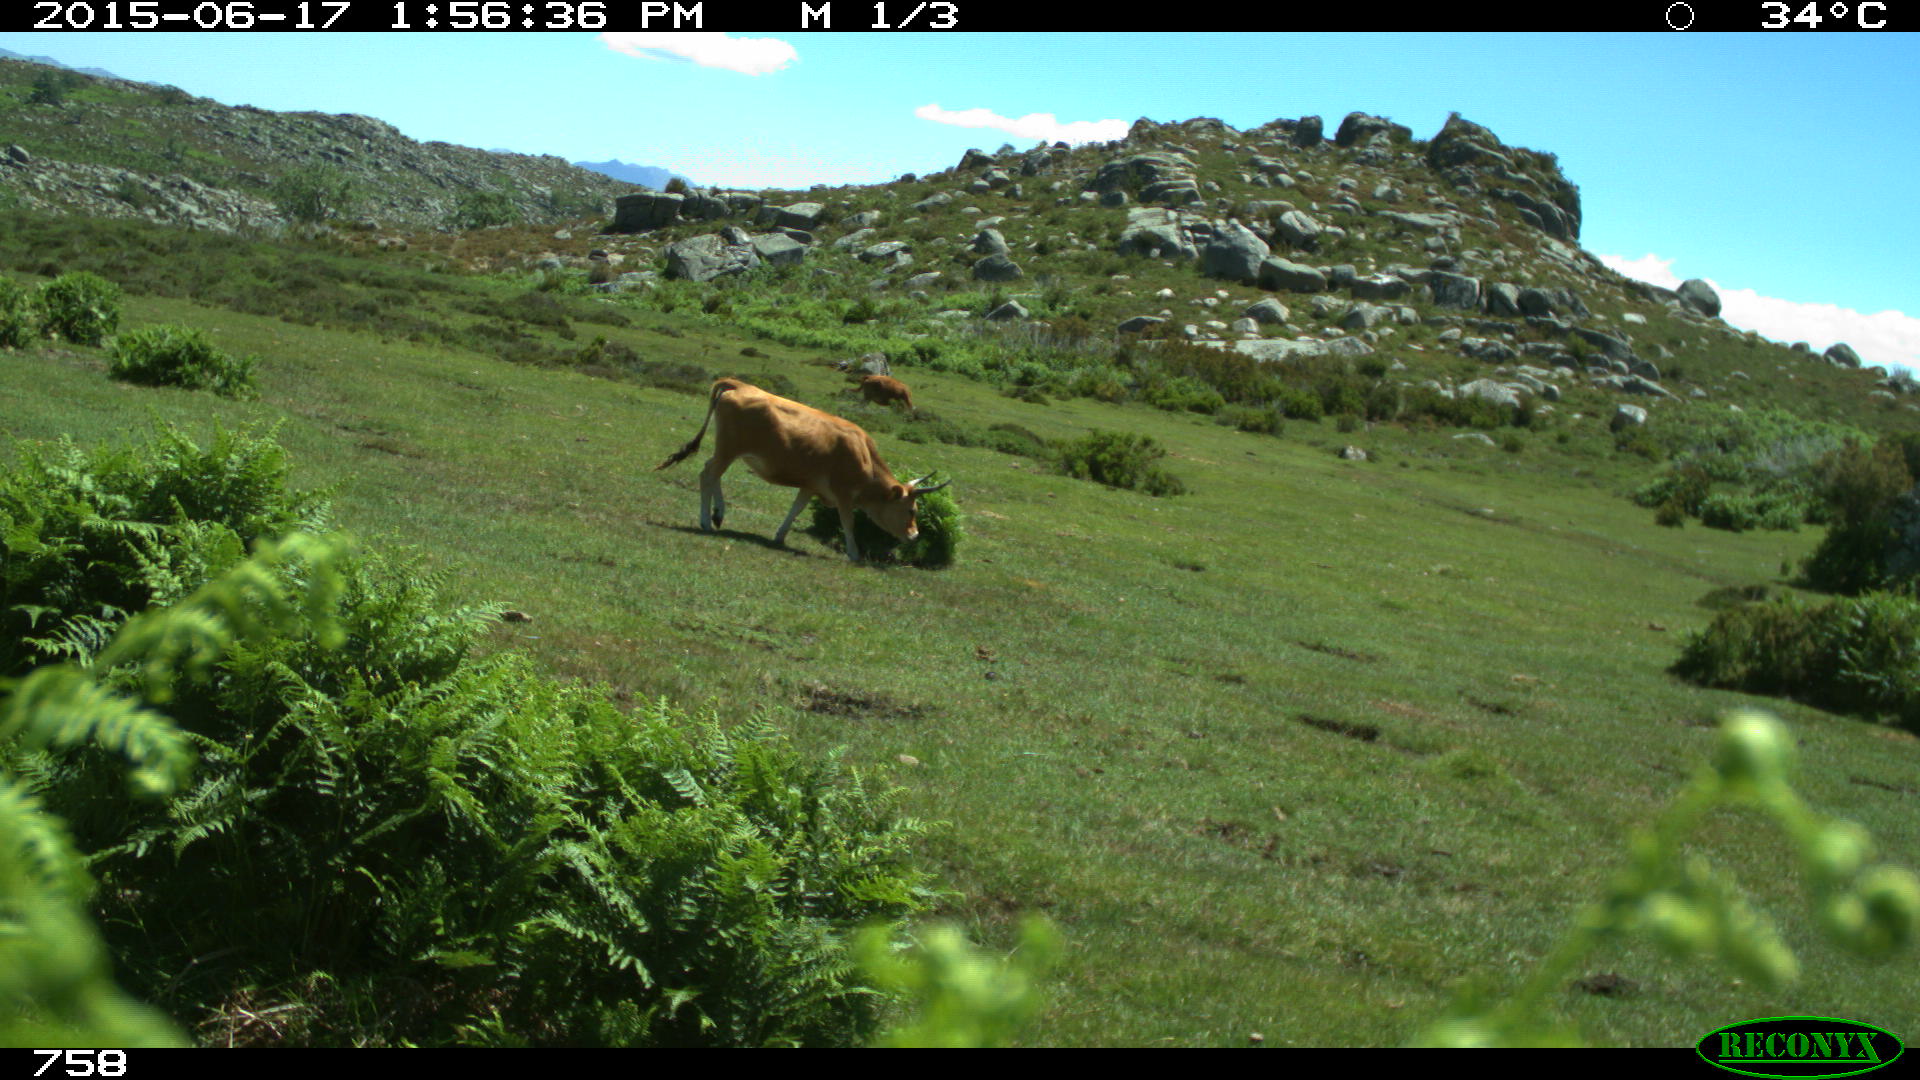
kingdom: Animalia
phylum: Chordata
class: Mammalia
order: Artiodactyla
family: Bovidae
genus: Bos
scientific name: Bos taurus
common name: Domesticated cattle
